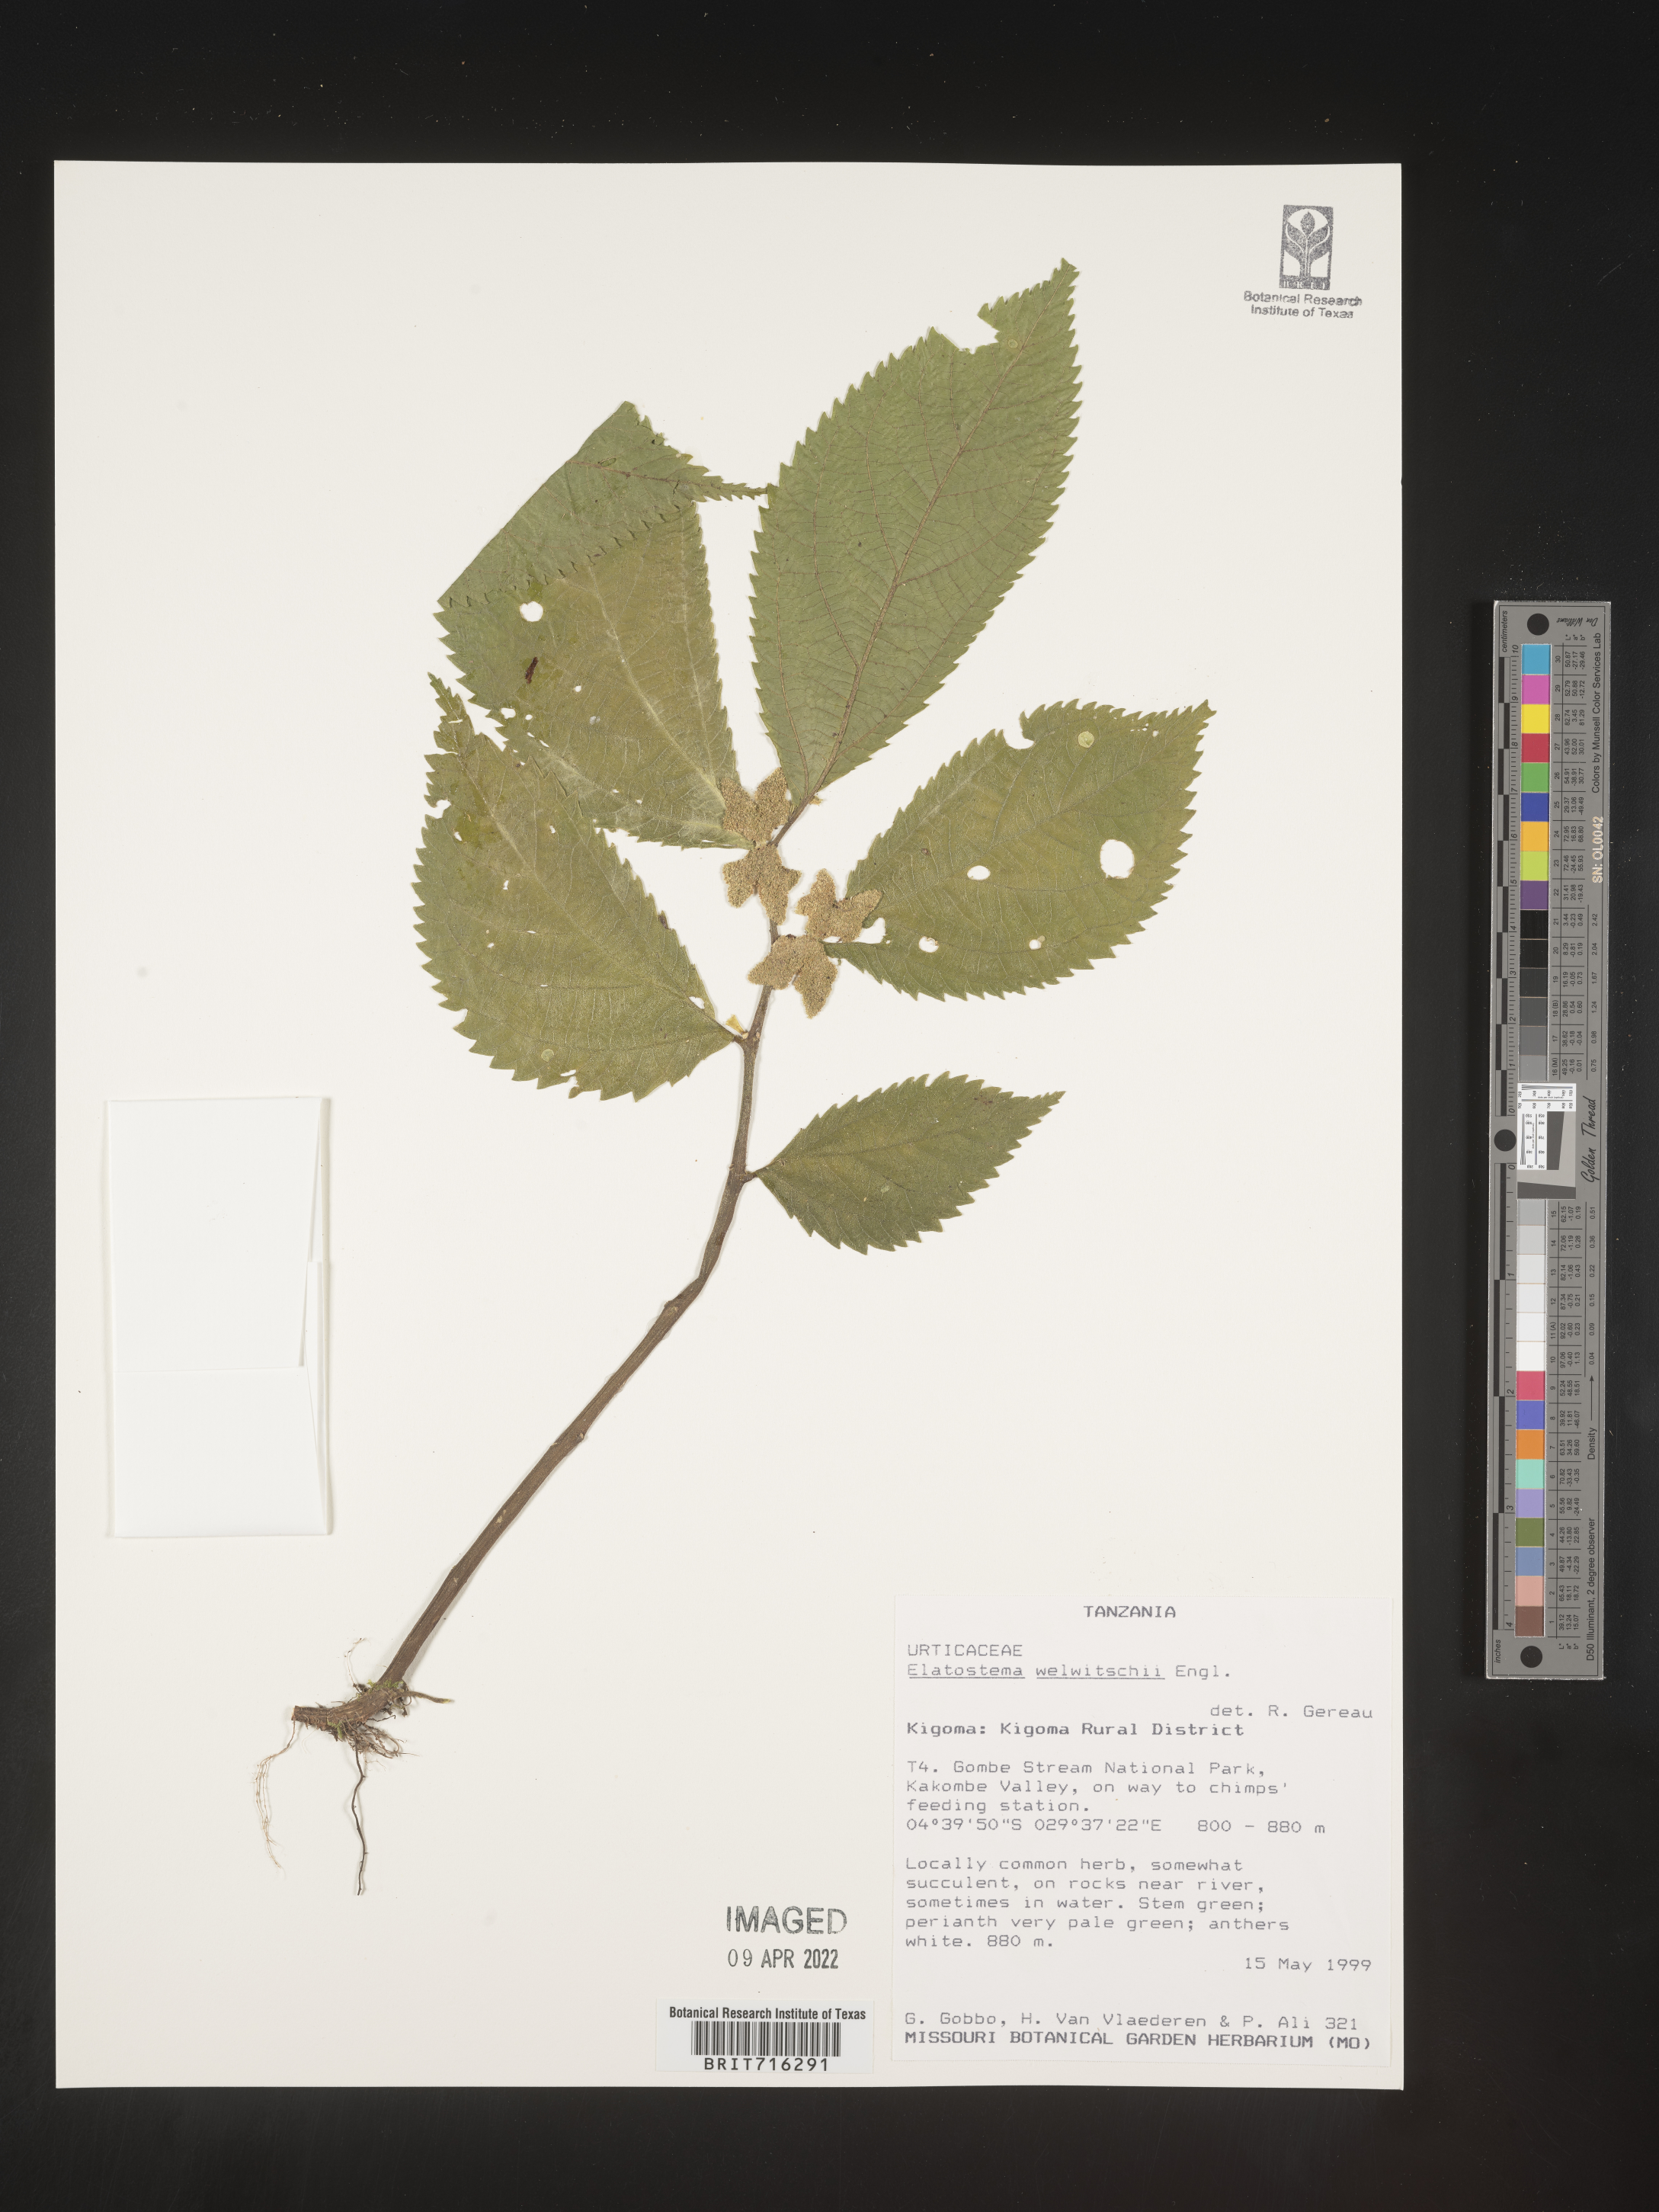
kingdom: Plantae
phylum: Tracheophyta
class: Magnoliopsida
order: Rosales
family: Urticaceae
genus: Elatostema
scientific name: Elatostema
